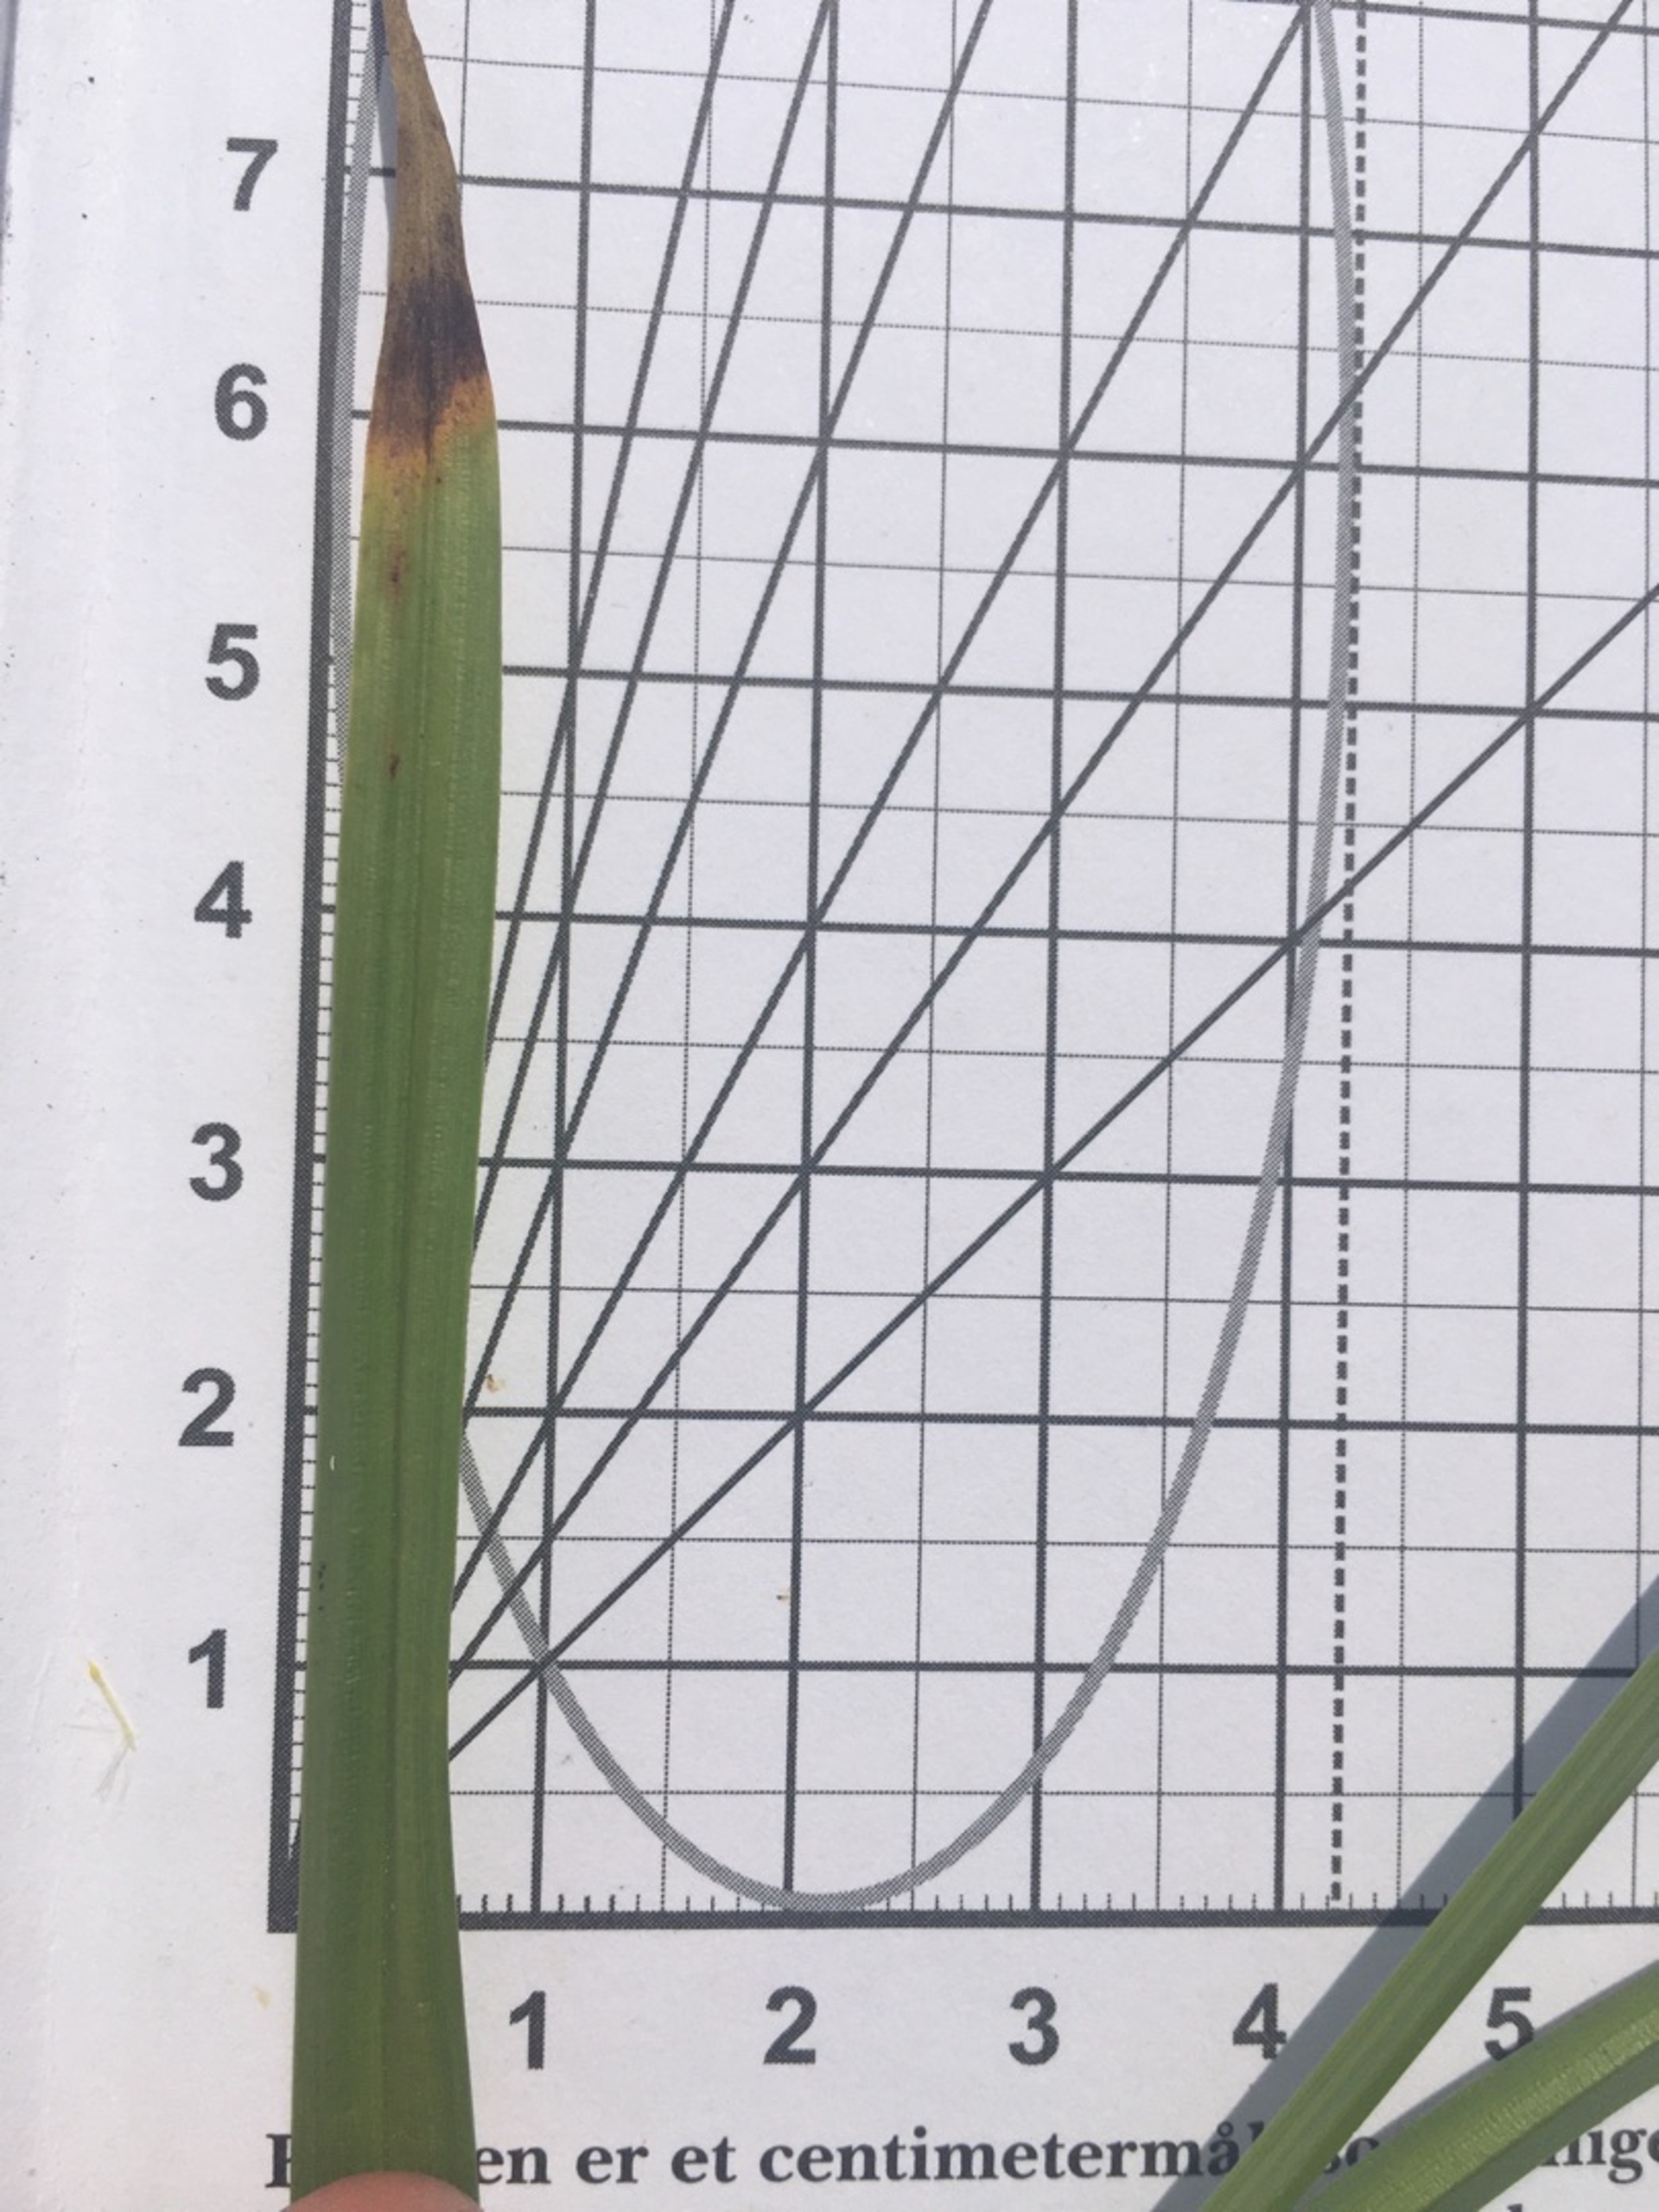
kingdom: Plantae
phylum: Tracheophyta
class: Liliopsida
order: Poales
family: Cyperaceae
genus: Carex
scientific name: Carex otrubae
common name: Sylt-star
